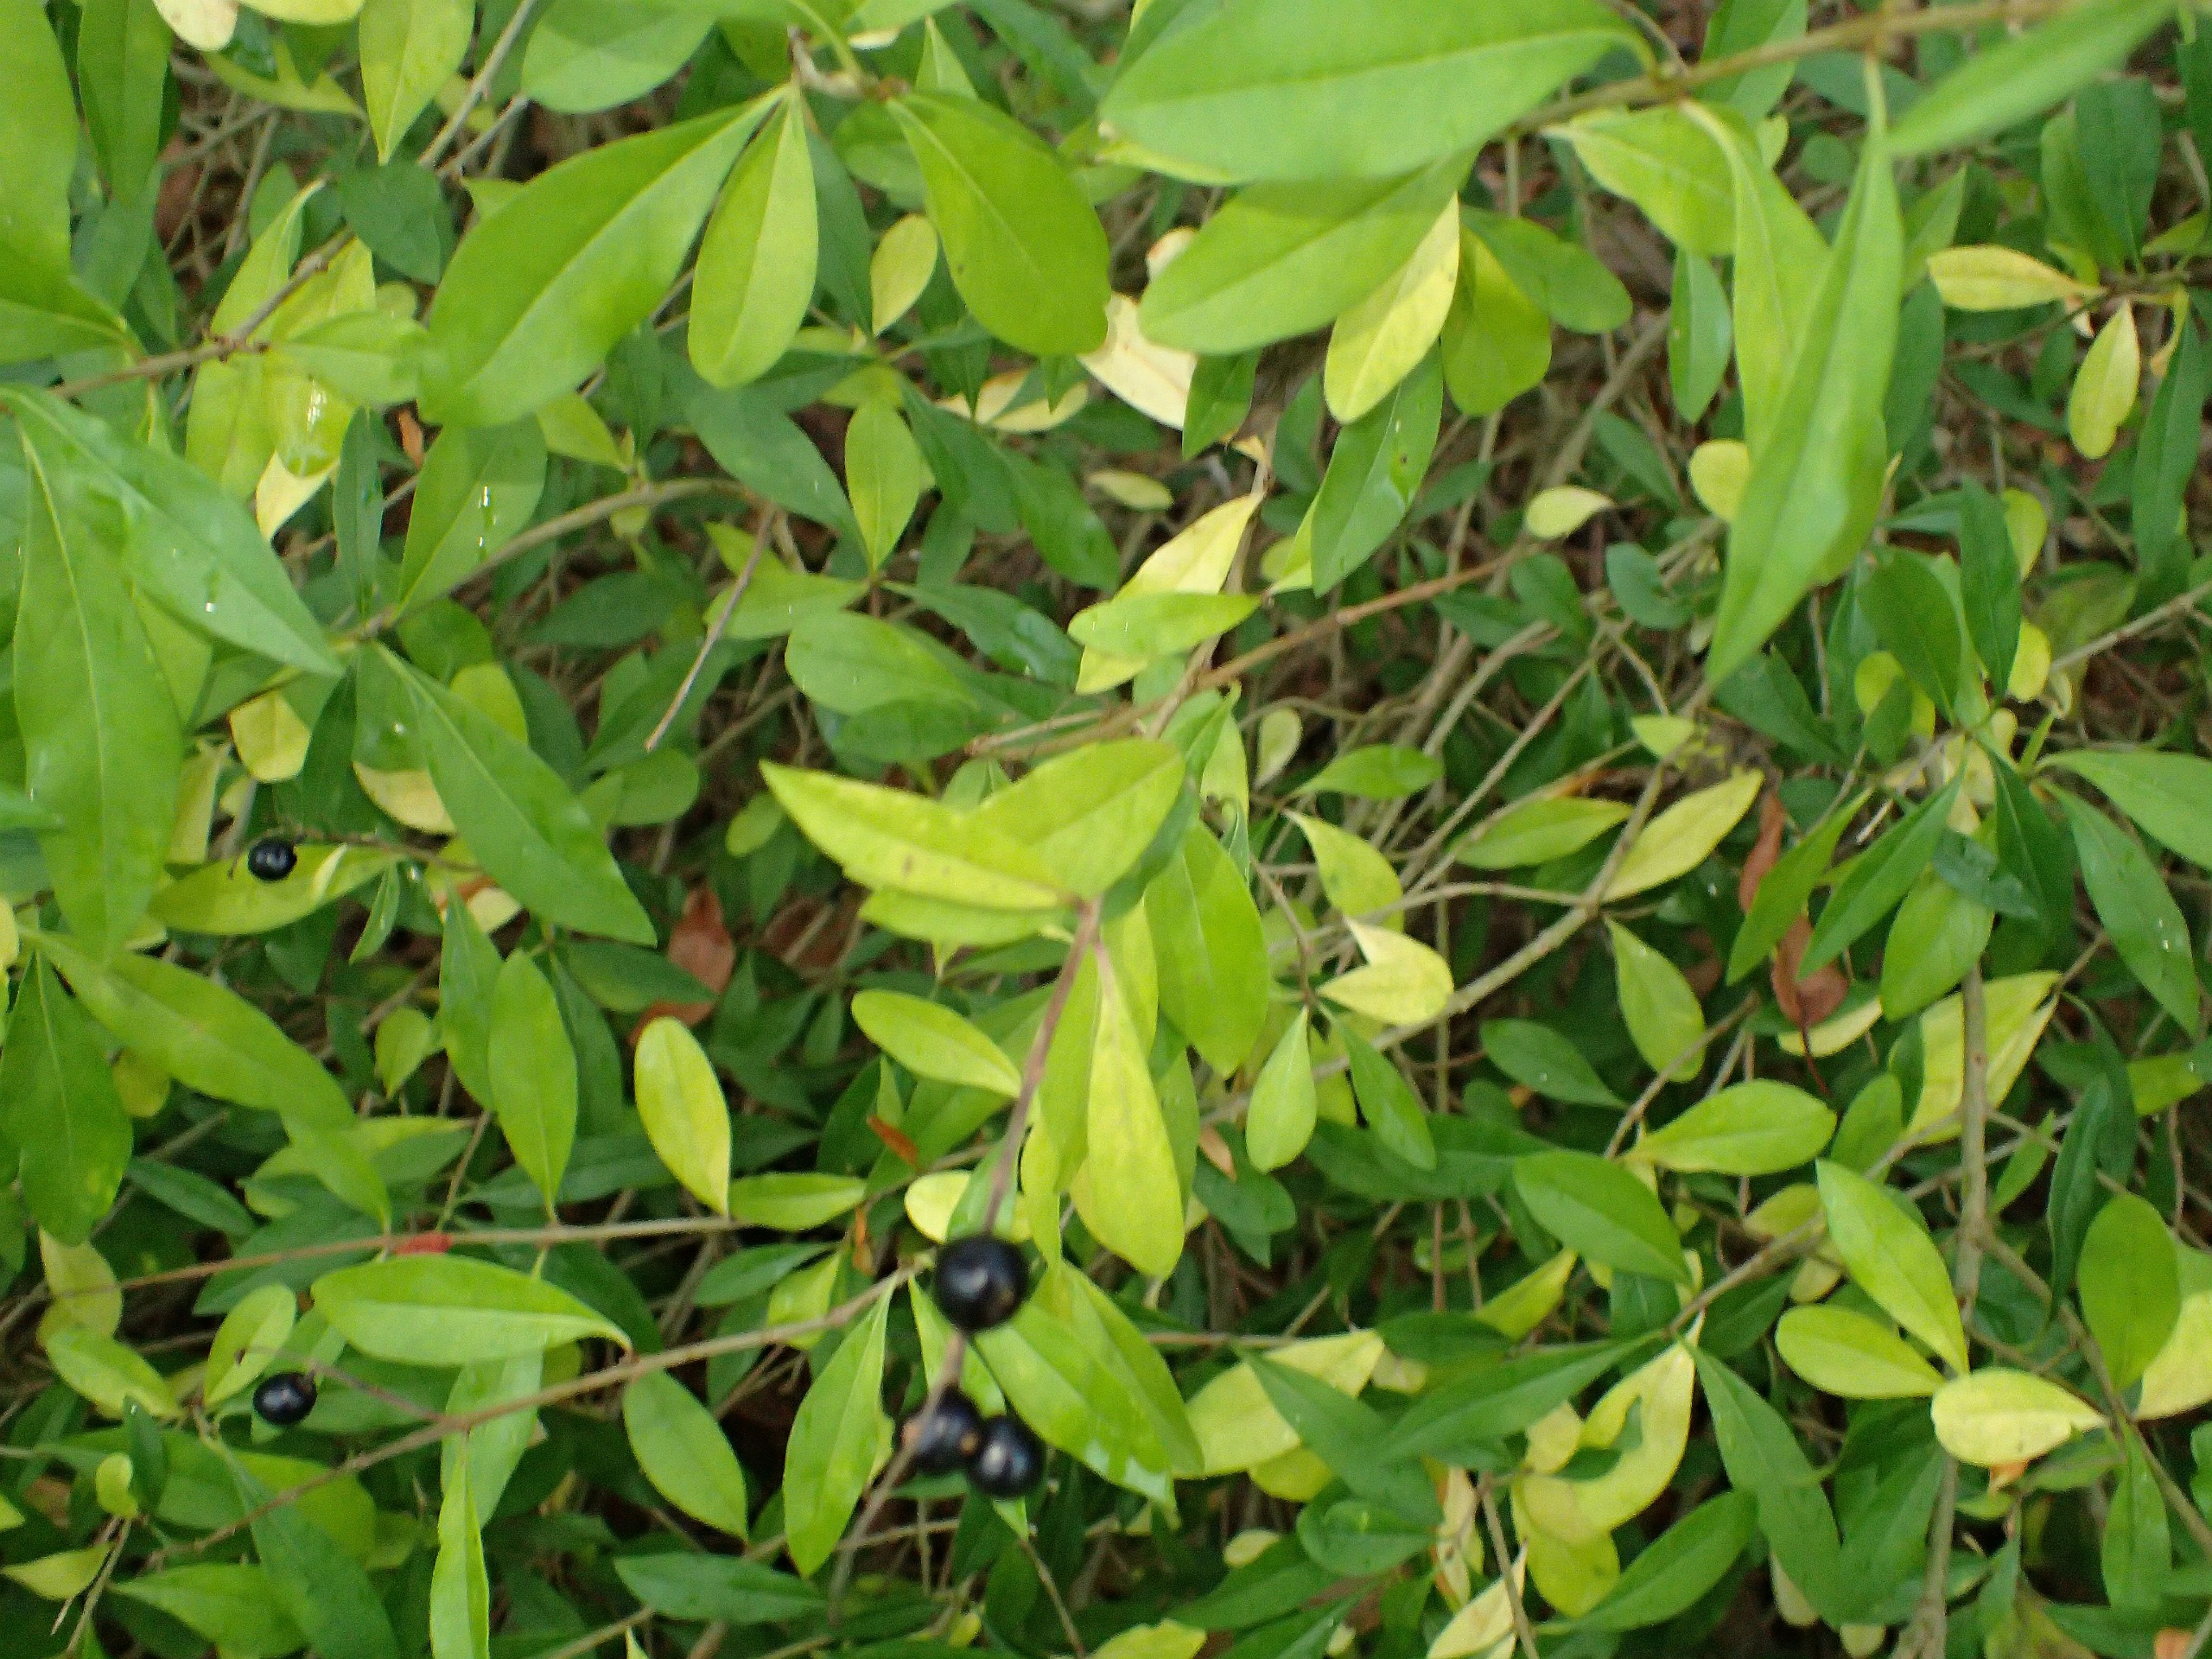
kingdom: Plantae
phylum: Tracheophyta
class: Magnoliopsida
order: Lamiales
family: Oleaceae
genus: Ligustrum
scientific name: Ligustrum vulgare
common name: Liguster
